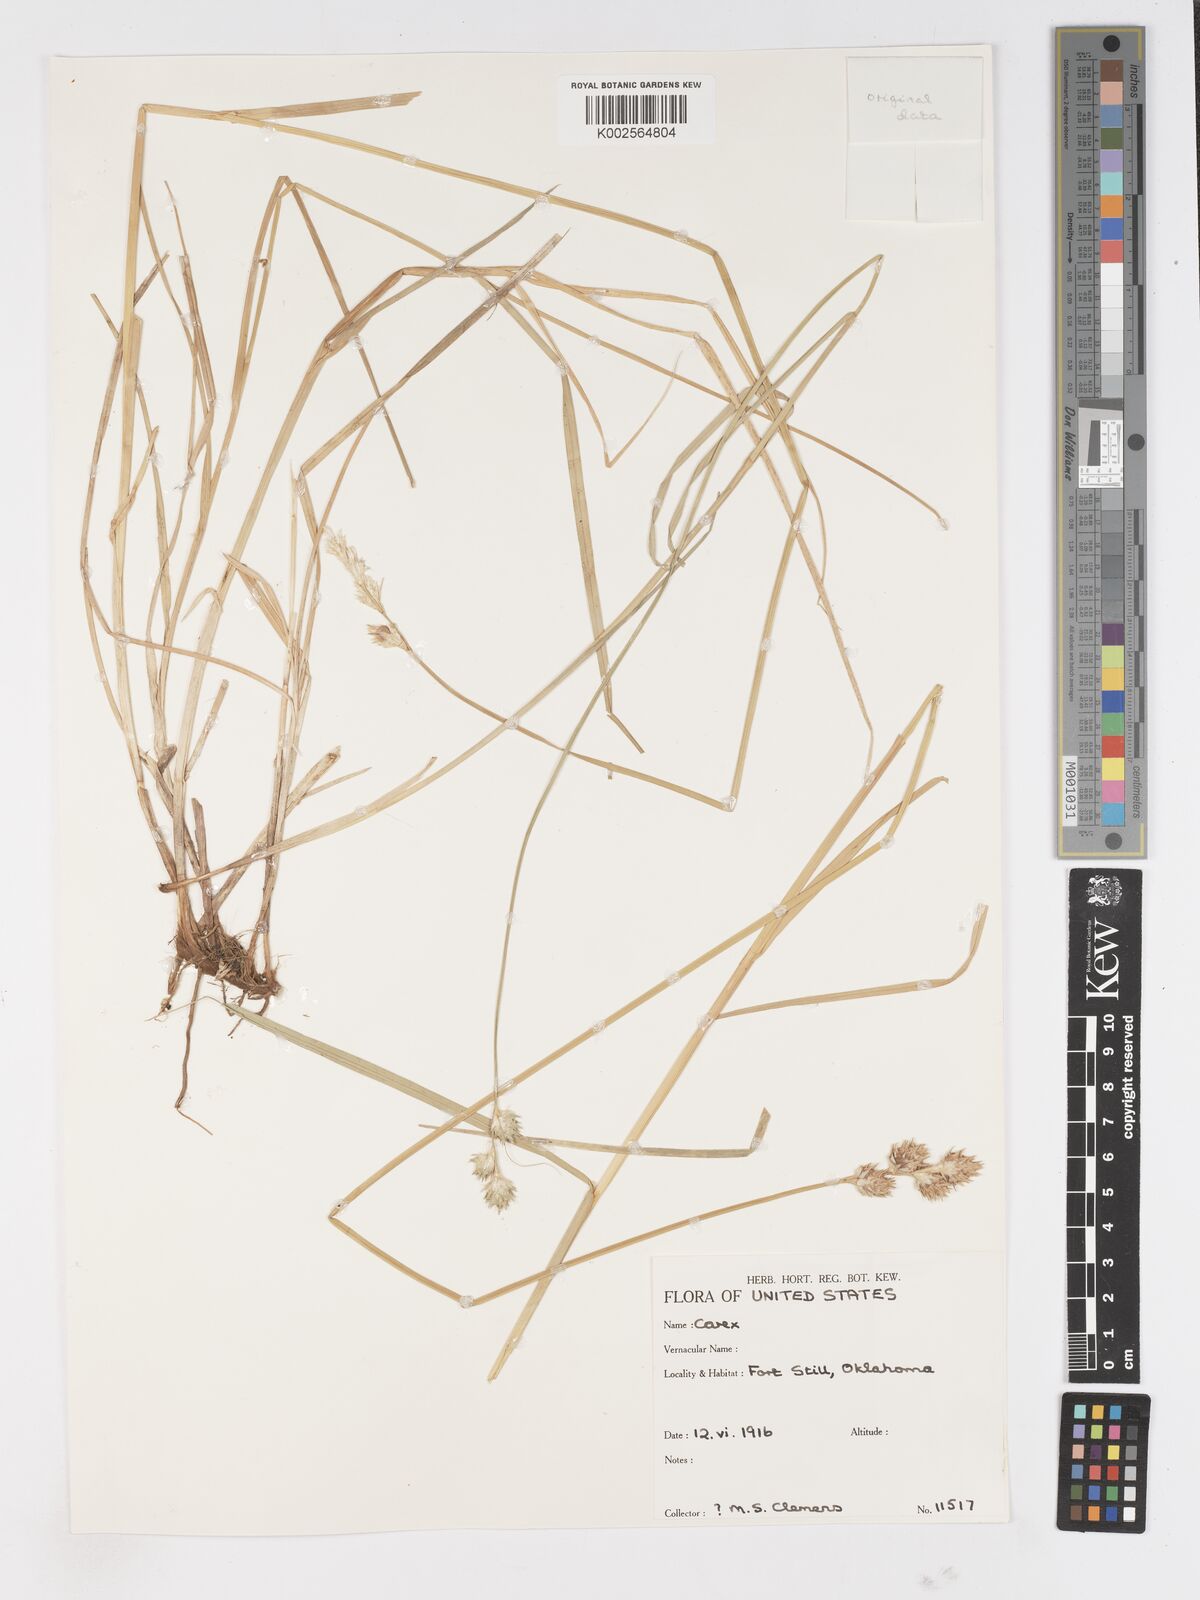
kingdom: Plantae
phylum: Tracheophyta
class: Liliopsida
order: Poales
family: Cyperaceae
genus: Carex
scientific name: Carex
